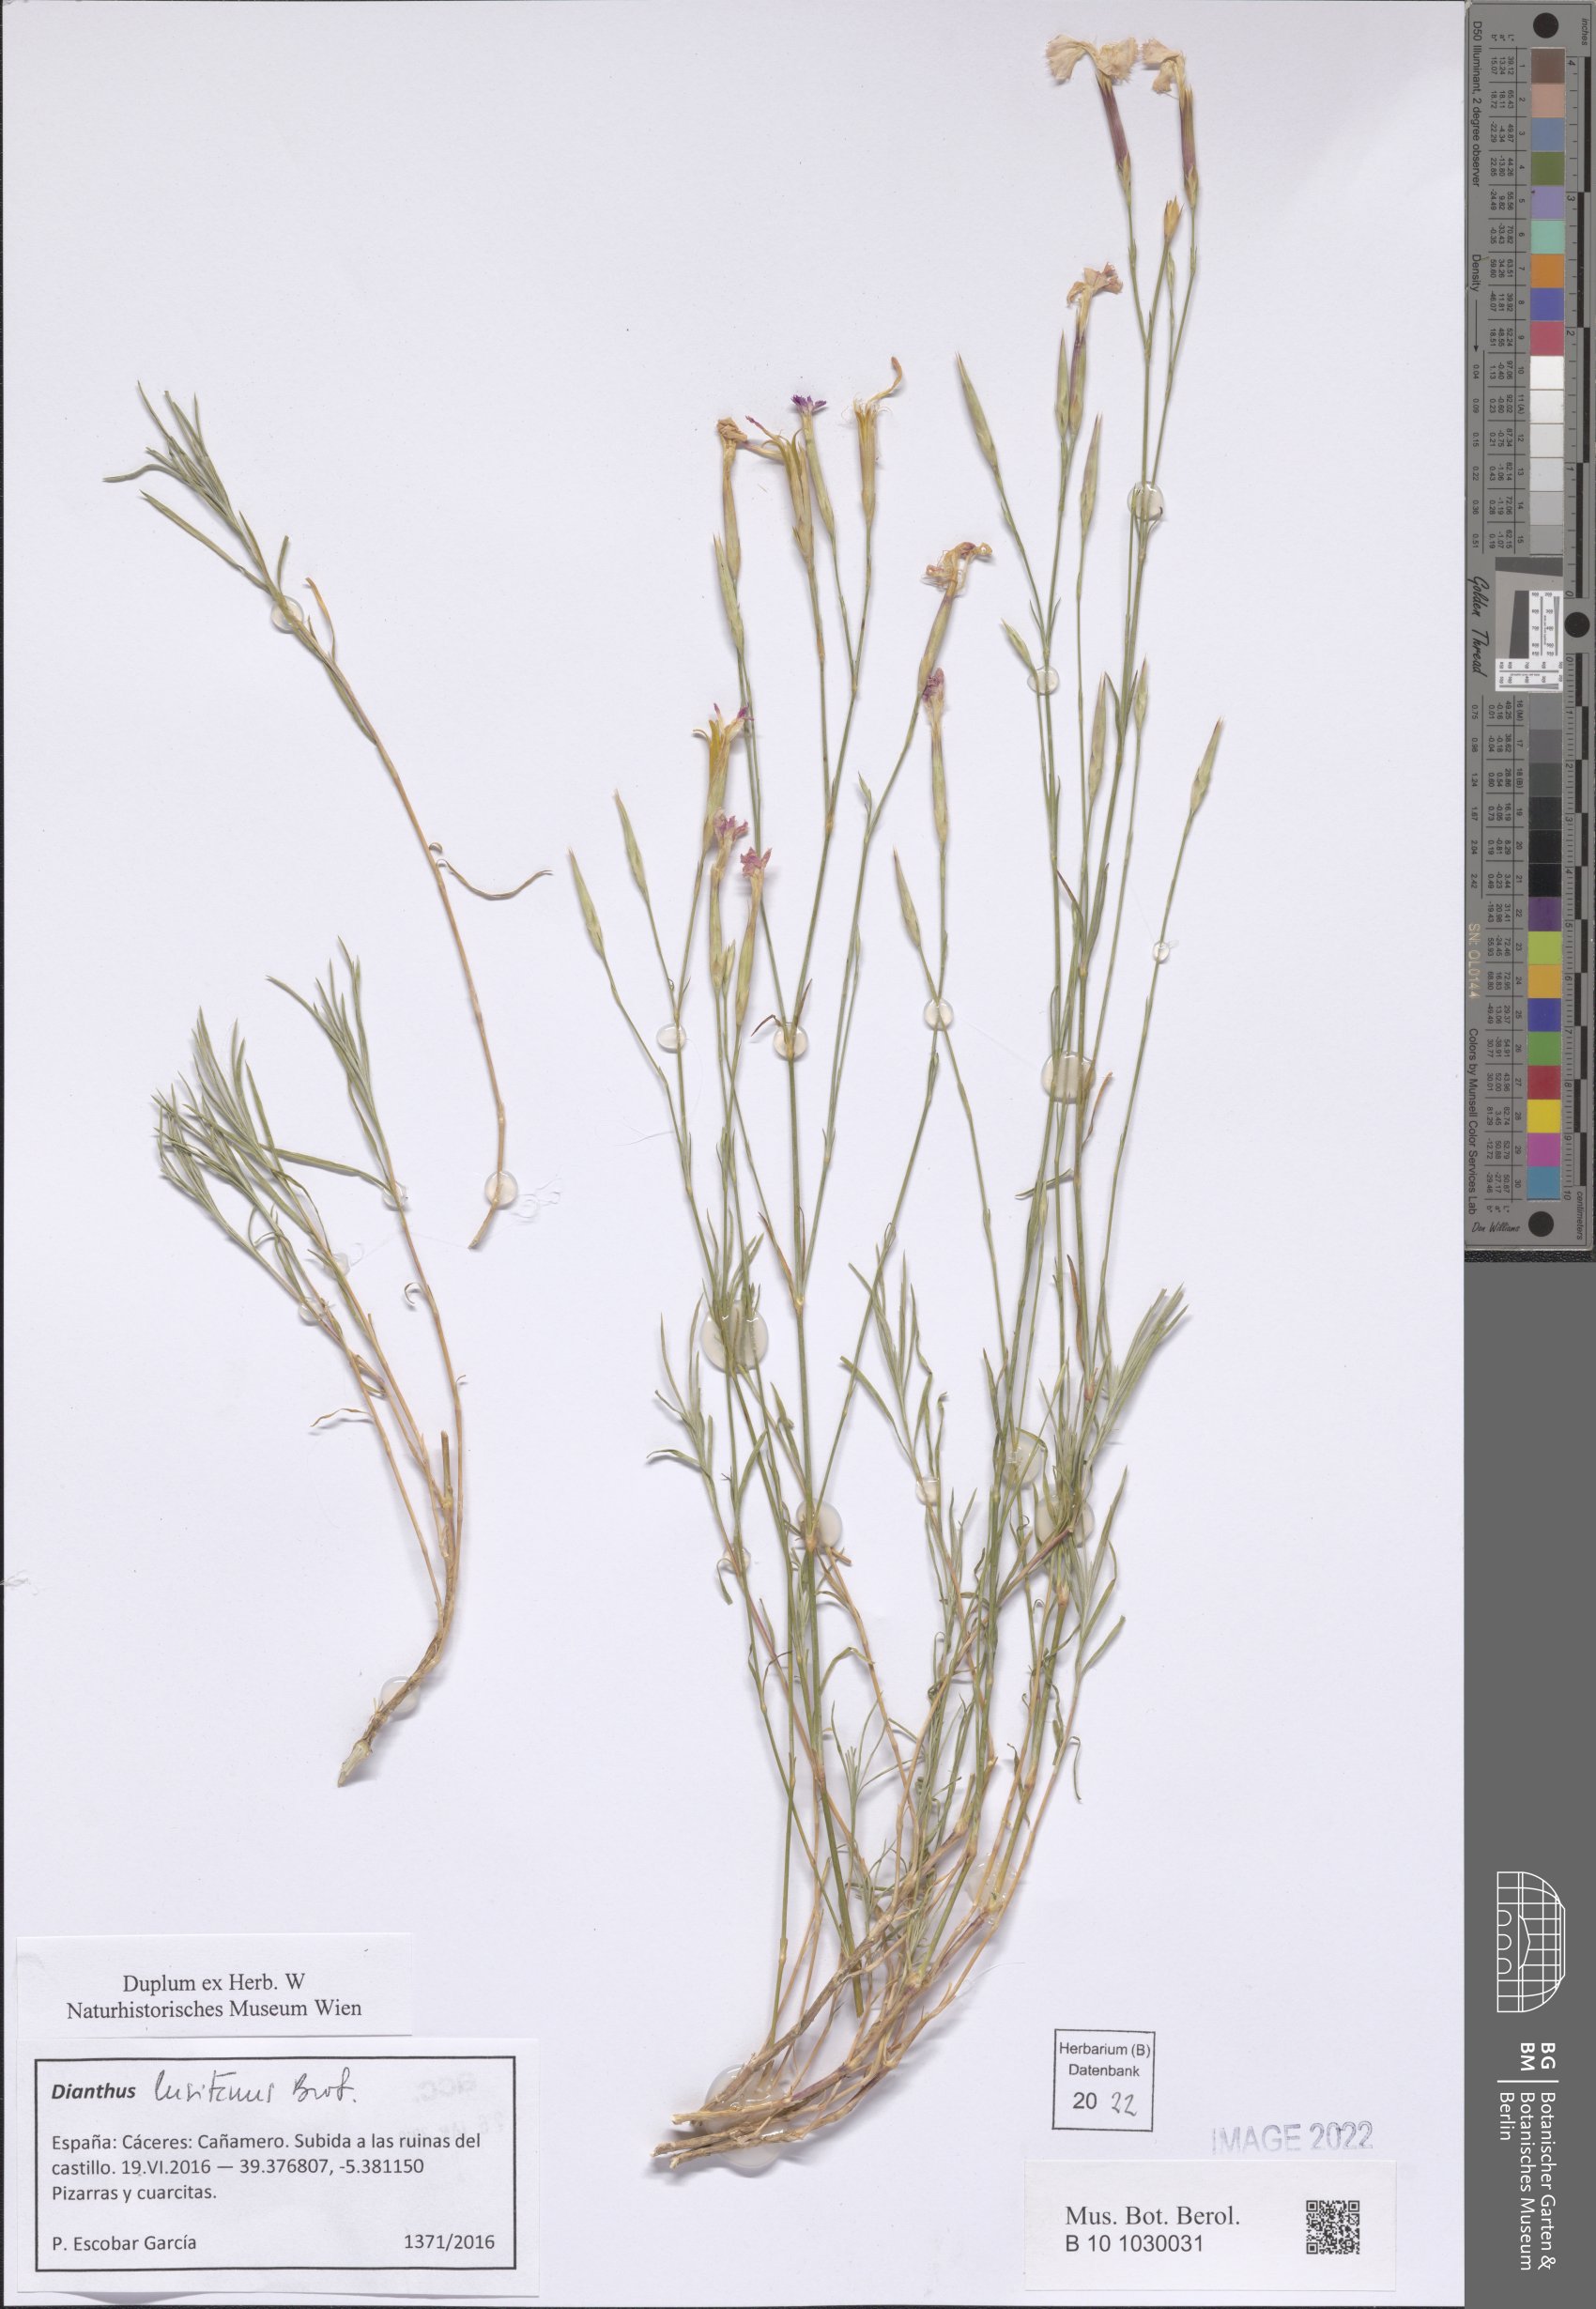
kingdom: Plantae
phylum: Tracheophyta
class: Magnoliopsida
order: Caryophyllales
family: Caryophyllaceae
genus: Dianthus
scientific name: Dianthus lusitanus
